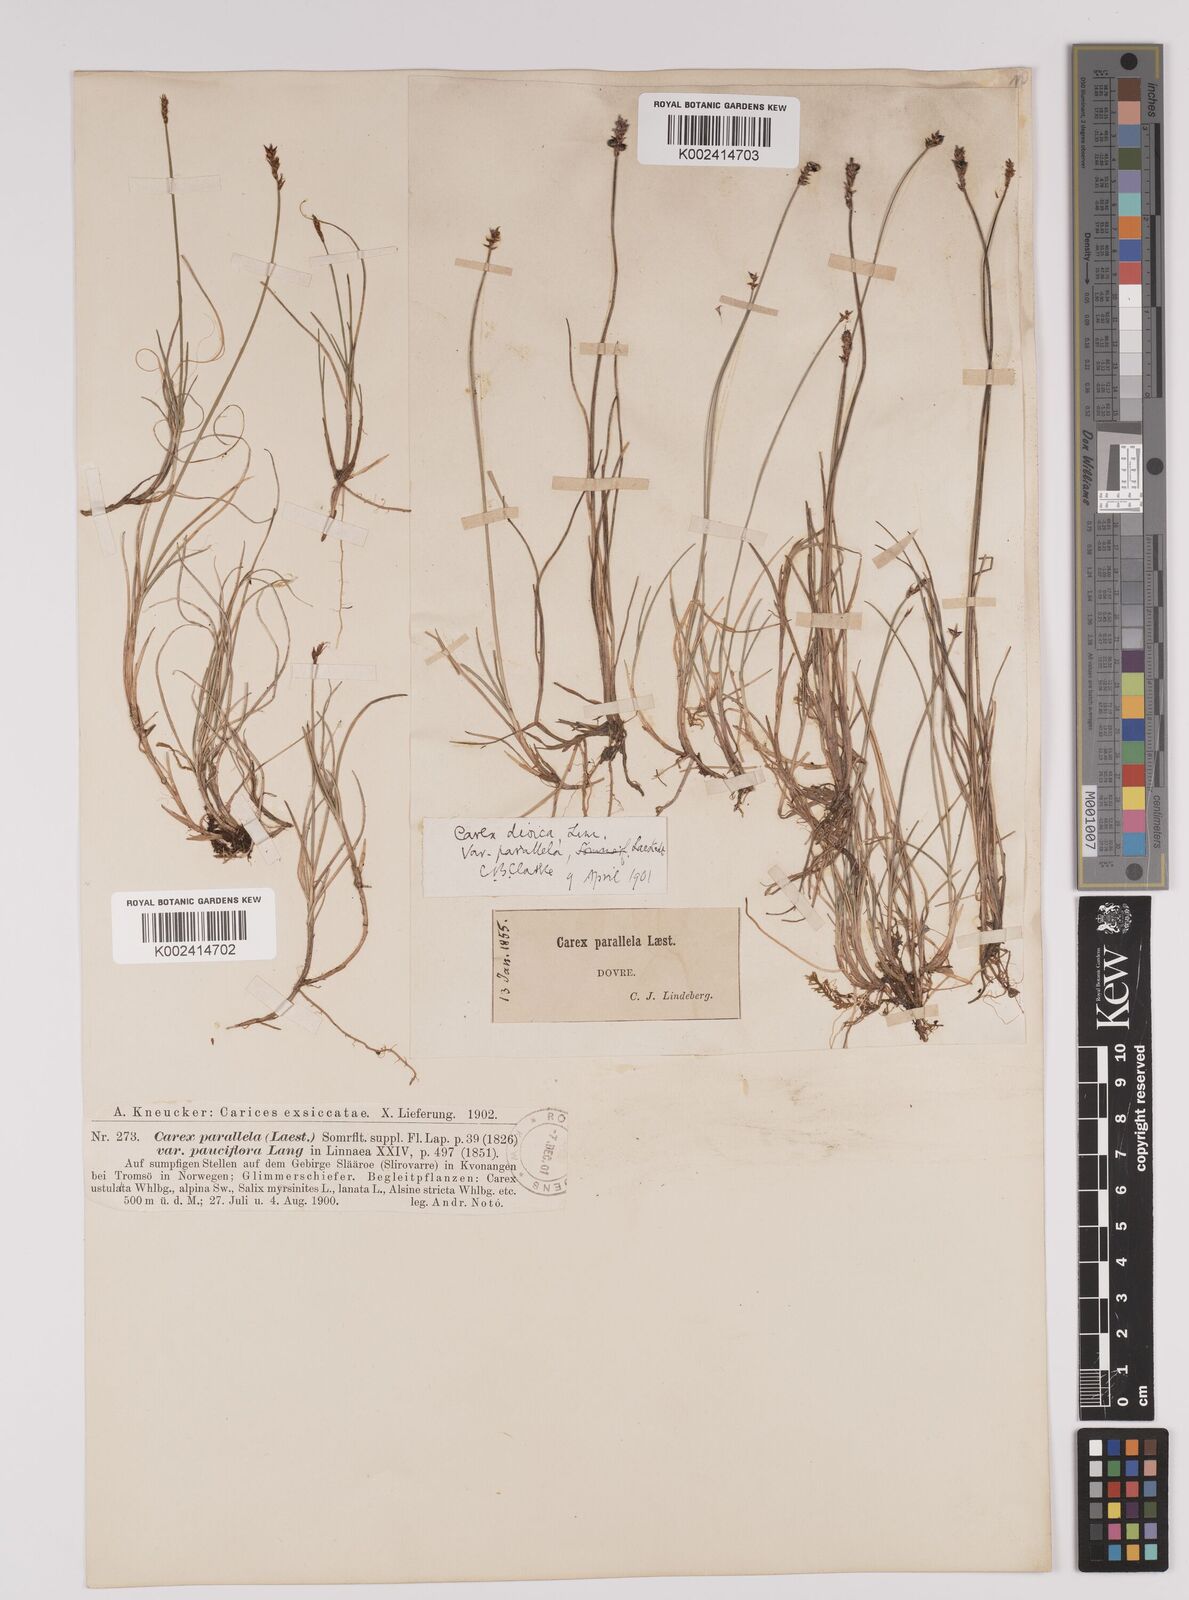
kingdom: Plantae
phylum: Tracheophyta
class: Liliopsida
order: Poales
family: Cyperaceae
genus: Carex
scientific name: Carex parallela
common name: Parallel sedge
